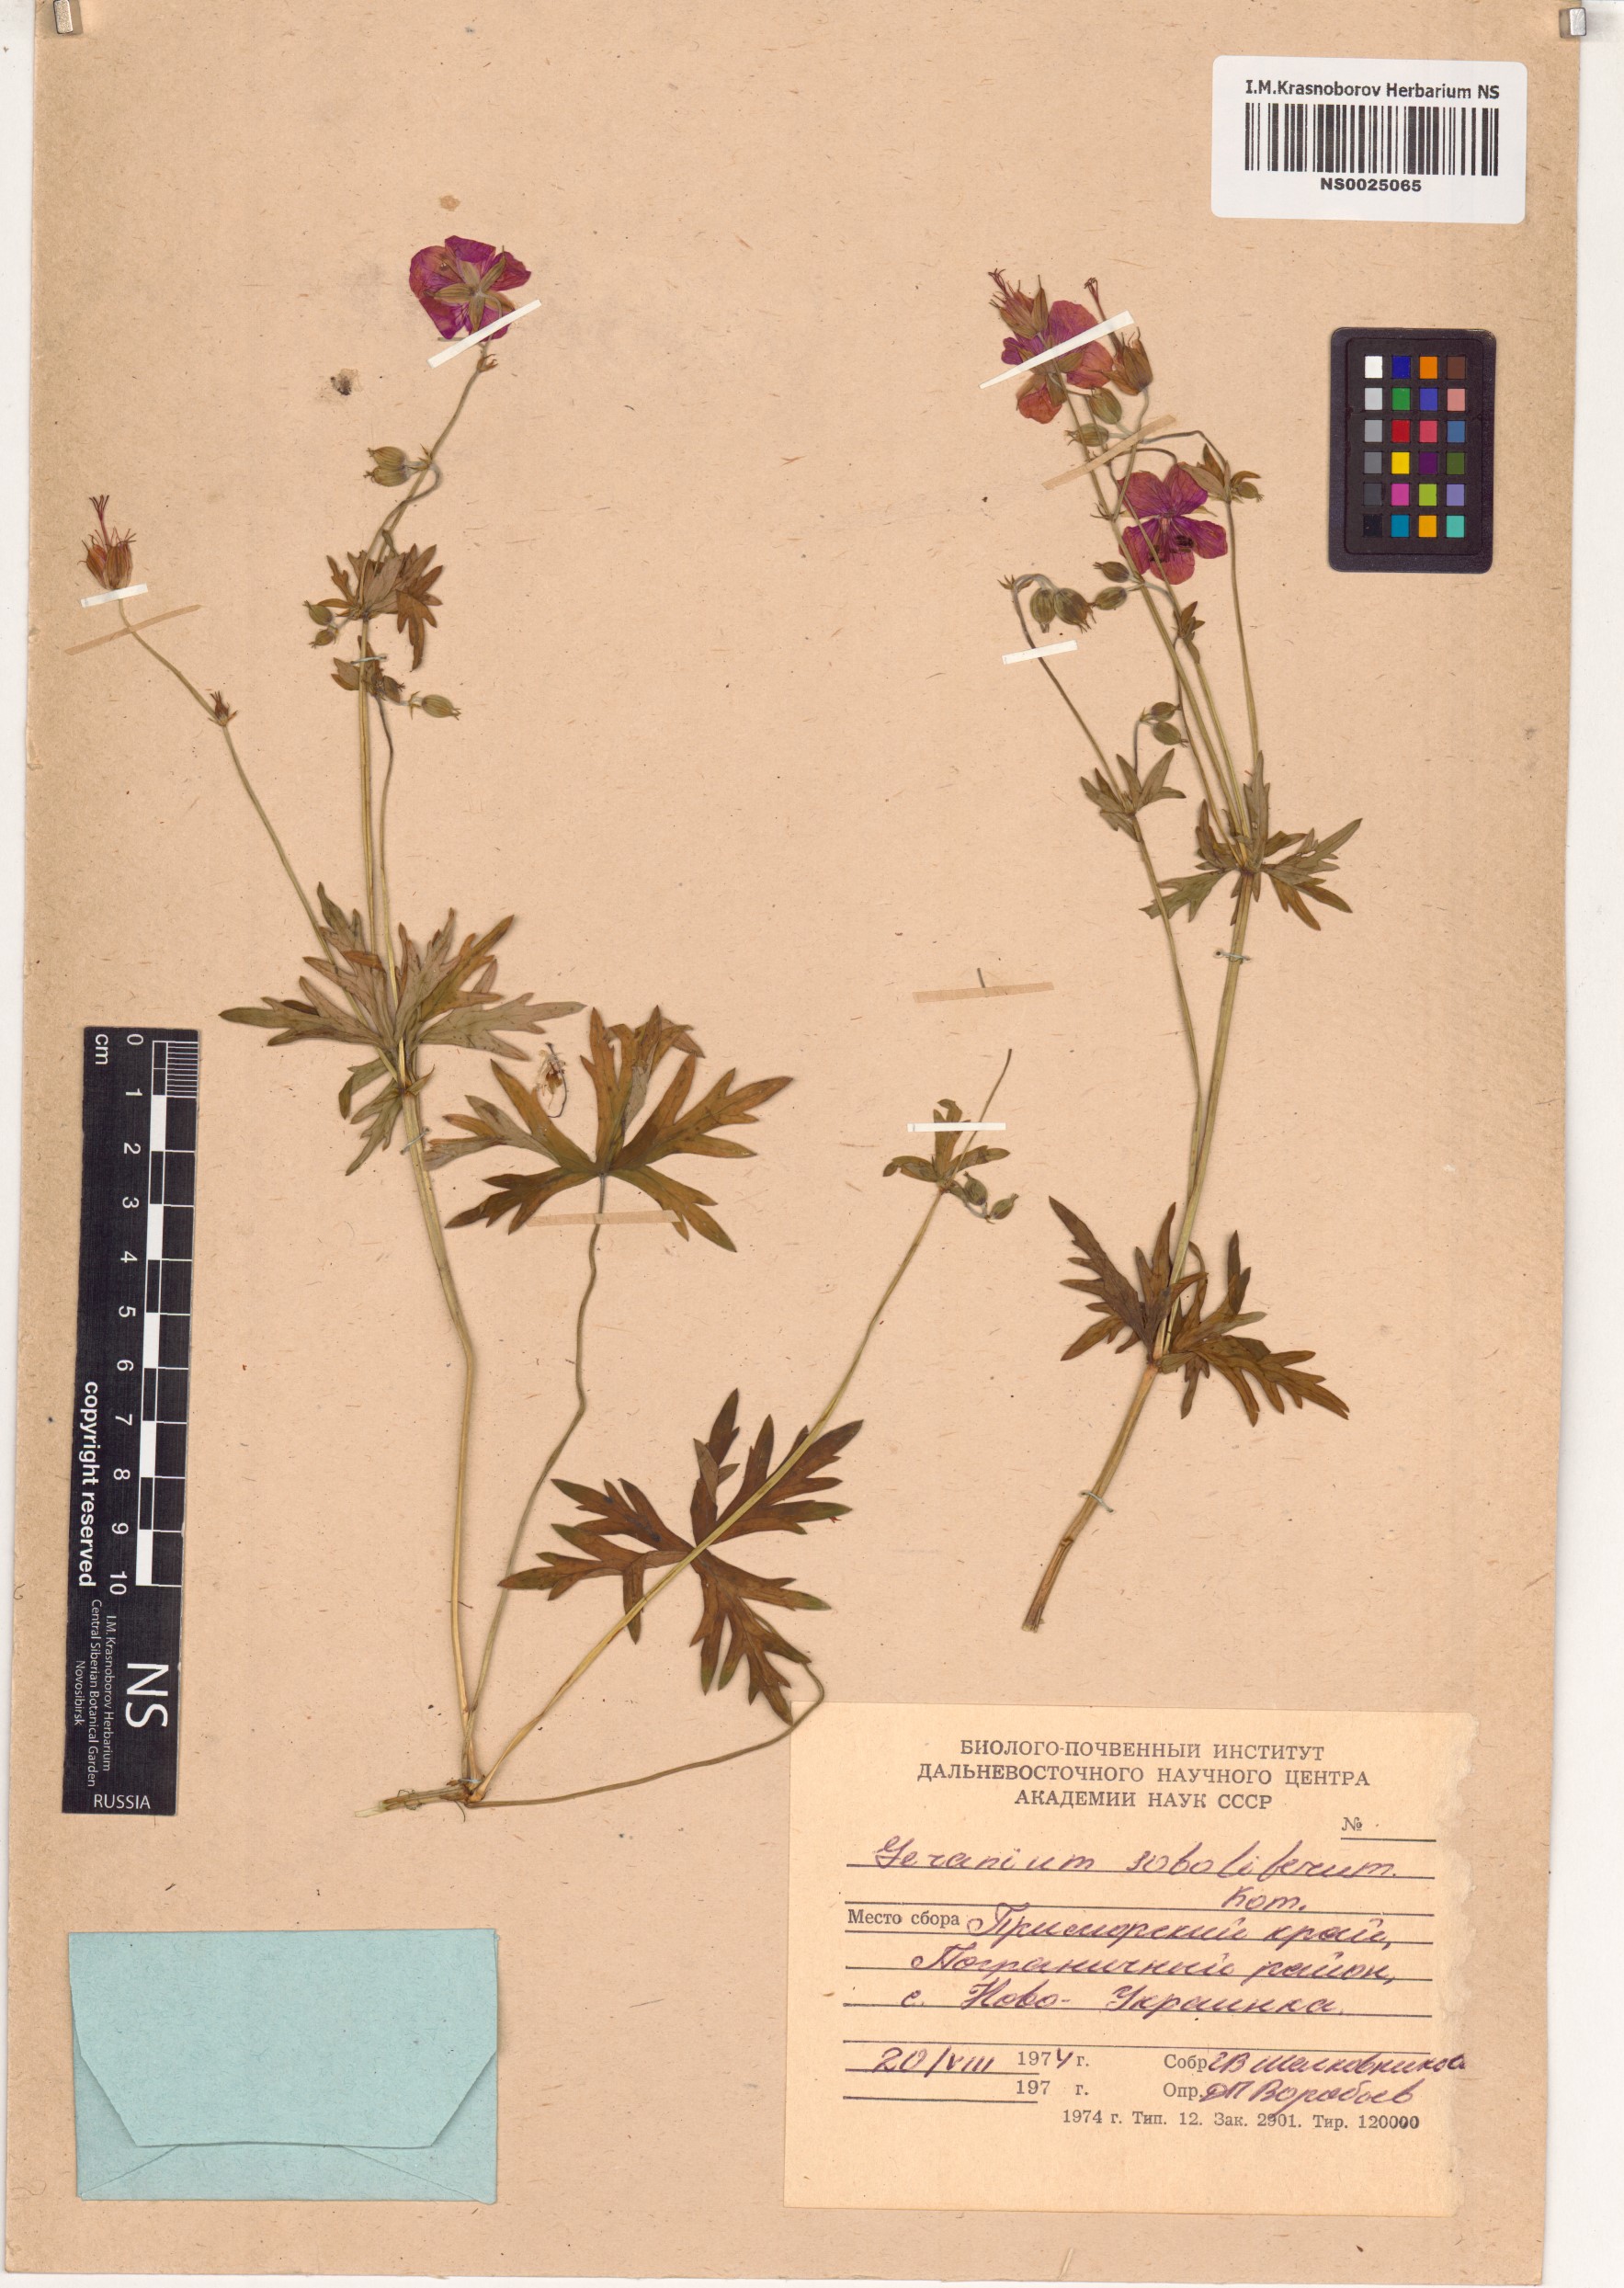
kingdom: Plantae
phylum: Tracheophyta
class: Magnoliopsida
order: Geraniales
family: Geraniaceae
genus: Geranium
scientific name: Geranium soboliferum
